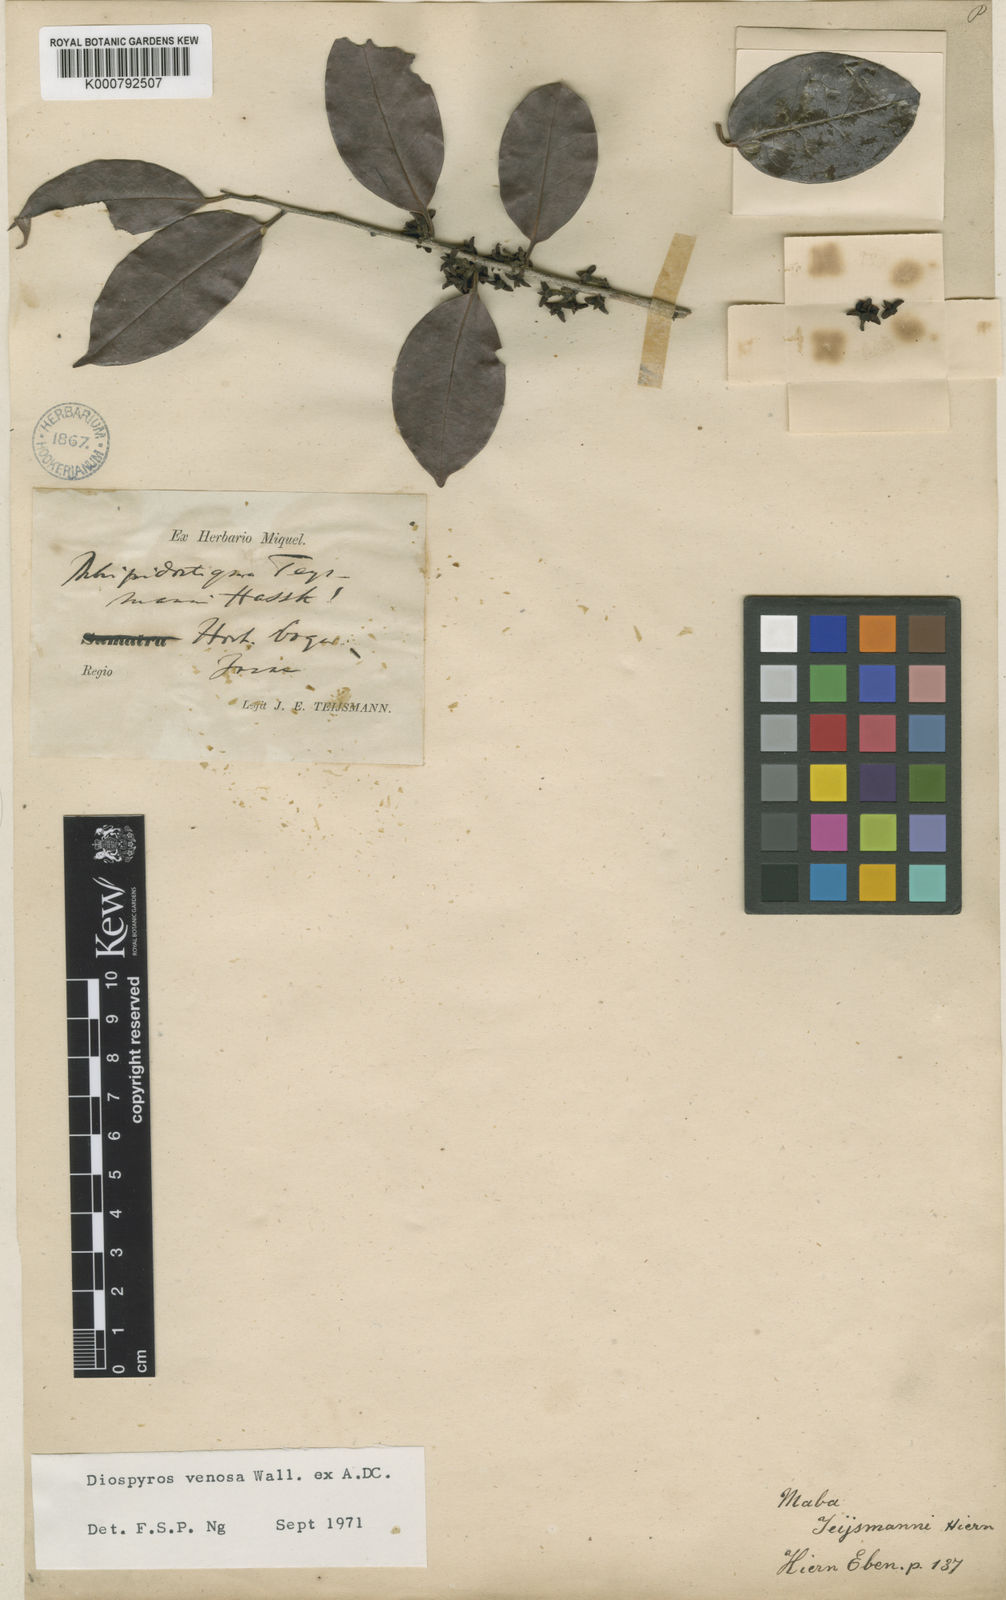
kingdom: Plantae
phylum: Tracheophyta
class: Magnoliopsida
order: Ericales
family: Ebenaceae
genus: Diospyros
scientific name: Diospyros venosa
